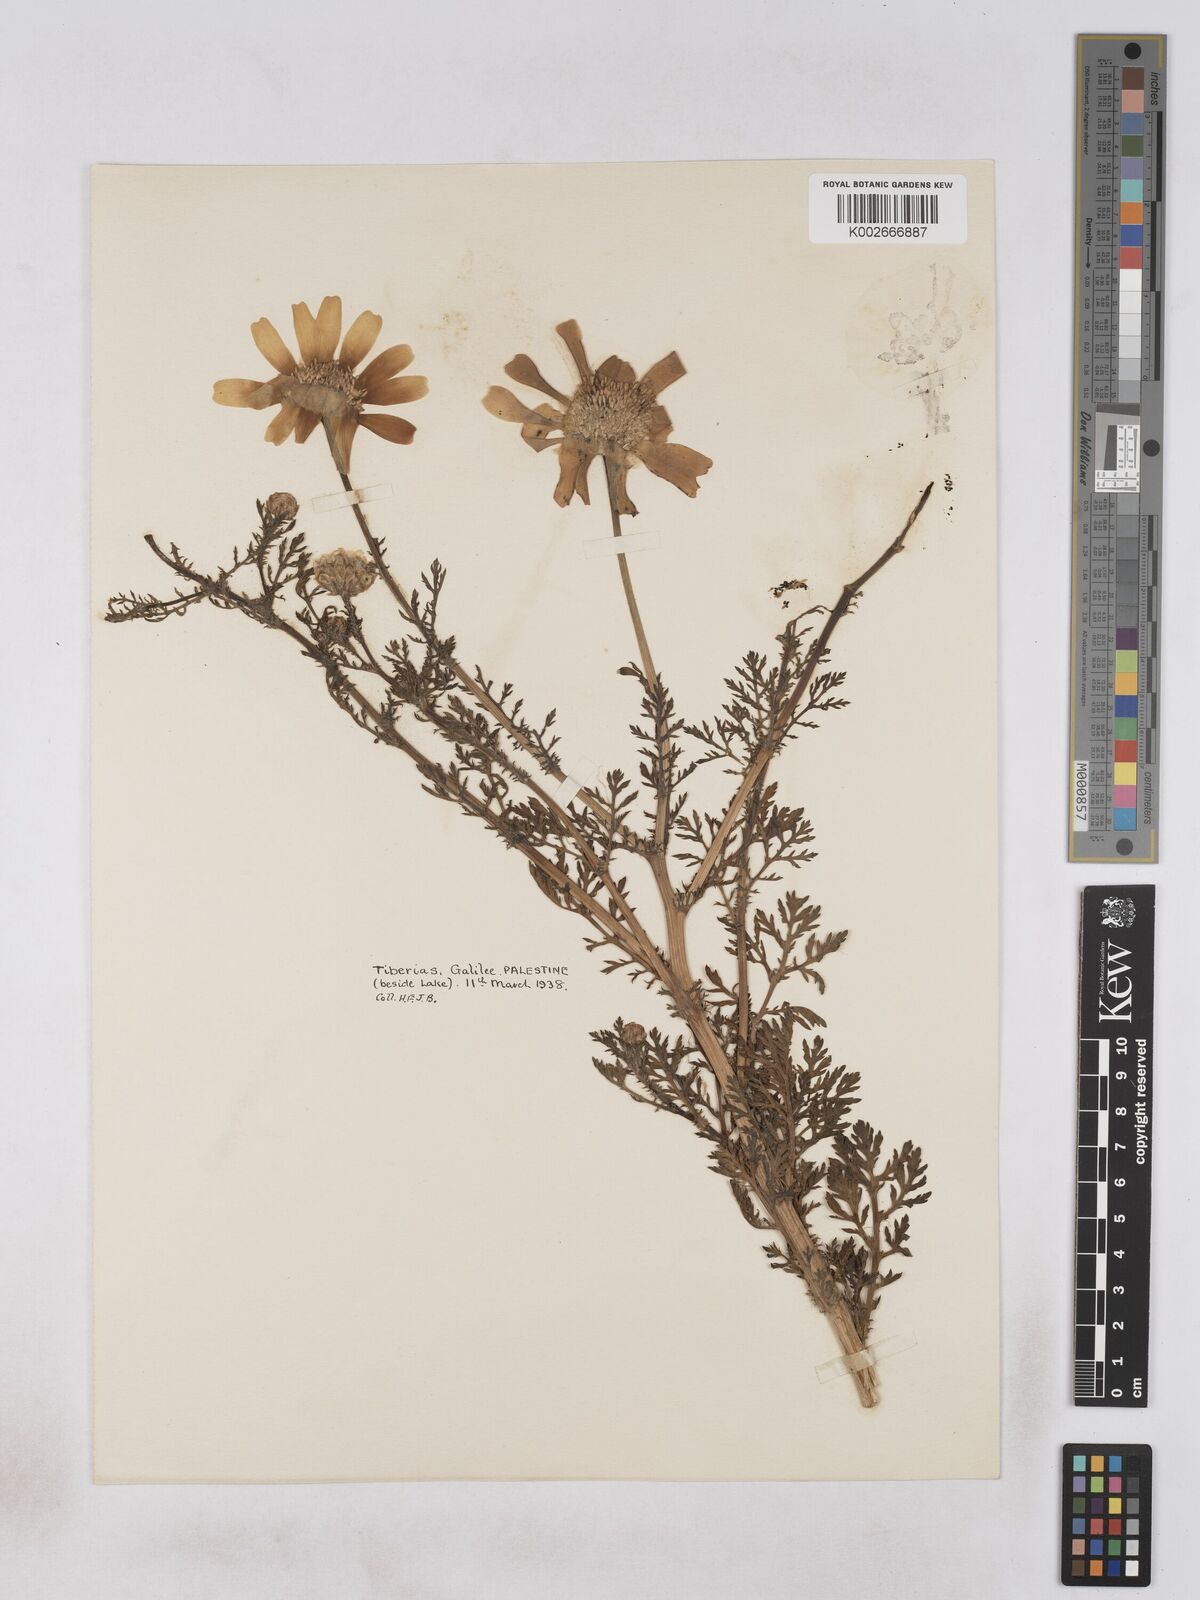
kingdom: Plantae
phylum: Tracheophyta
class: Magnoliopsida
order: Asterales
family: Asteraceae
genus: Glebionis
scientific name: Glebionis coronaria
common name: Crowndaisy
